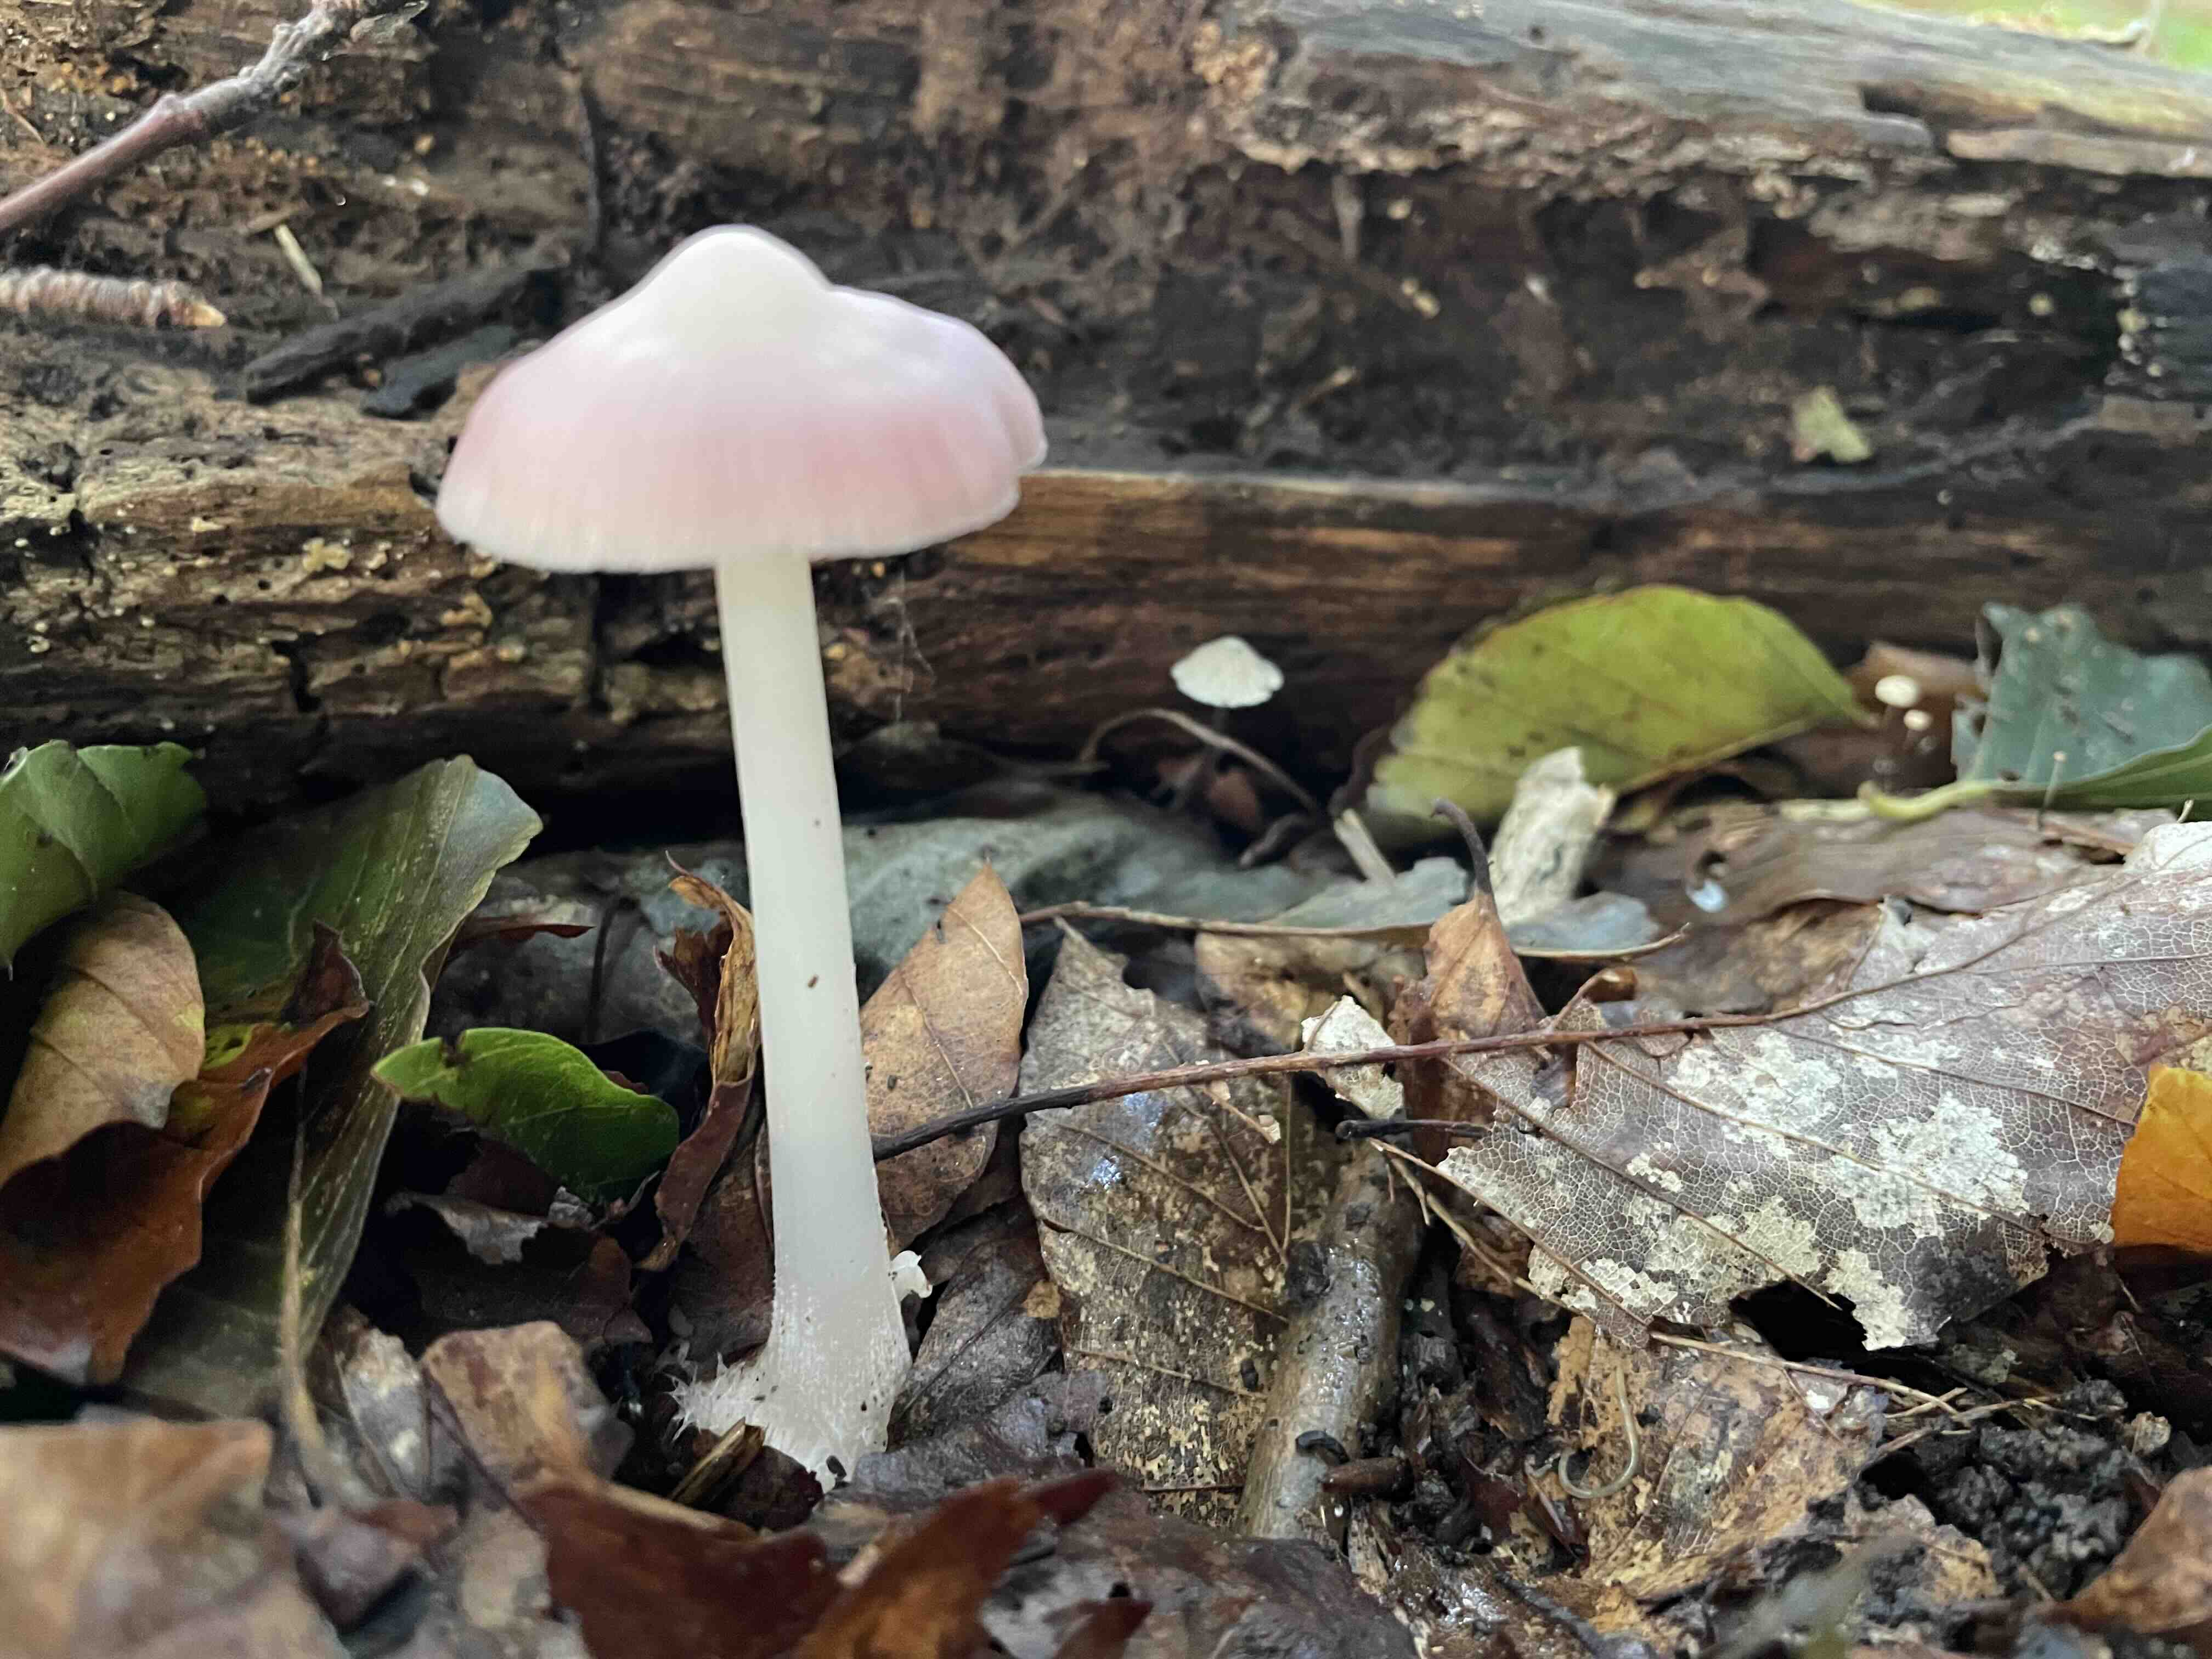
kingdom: Fungi
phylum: Basidiomycota
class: Agaricomycetes
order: Agaricales
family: Mycenaceae
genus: Mycena
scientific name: Mycena rosea
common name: rosa huesvamp
